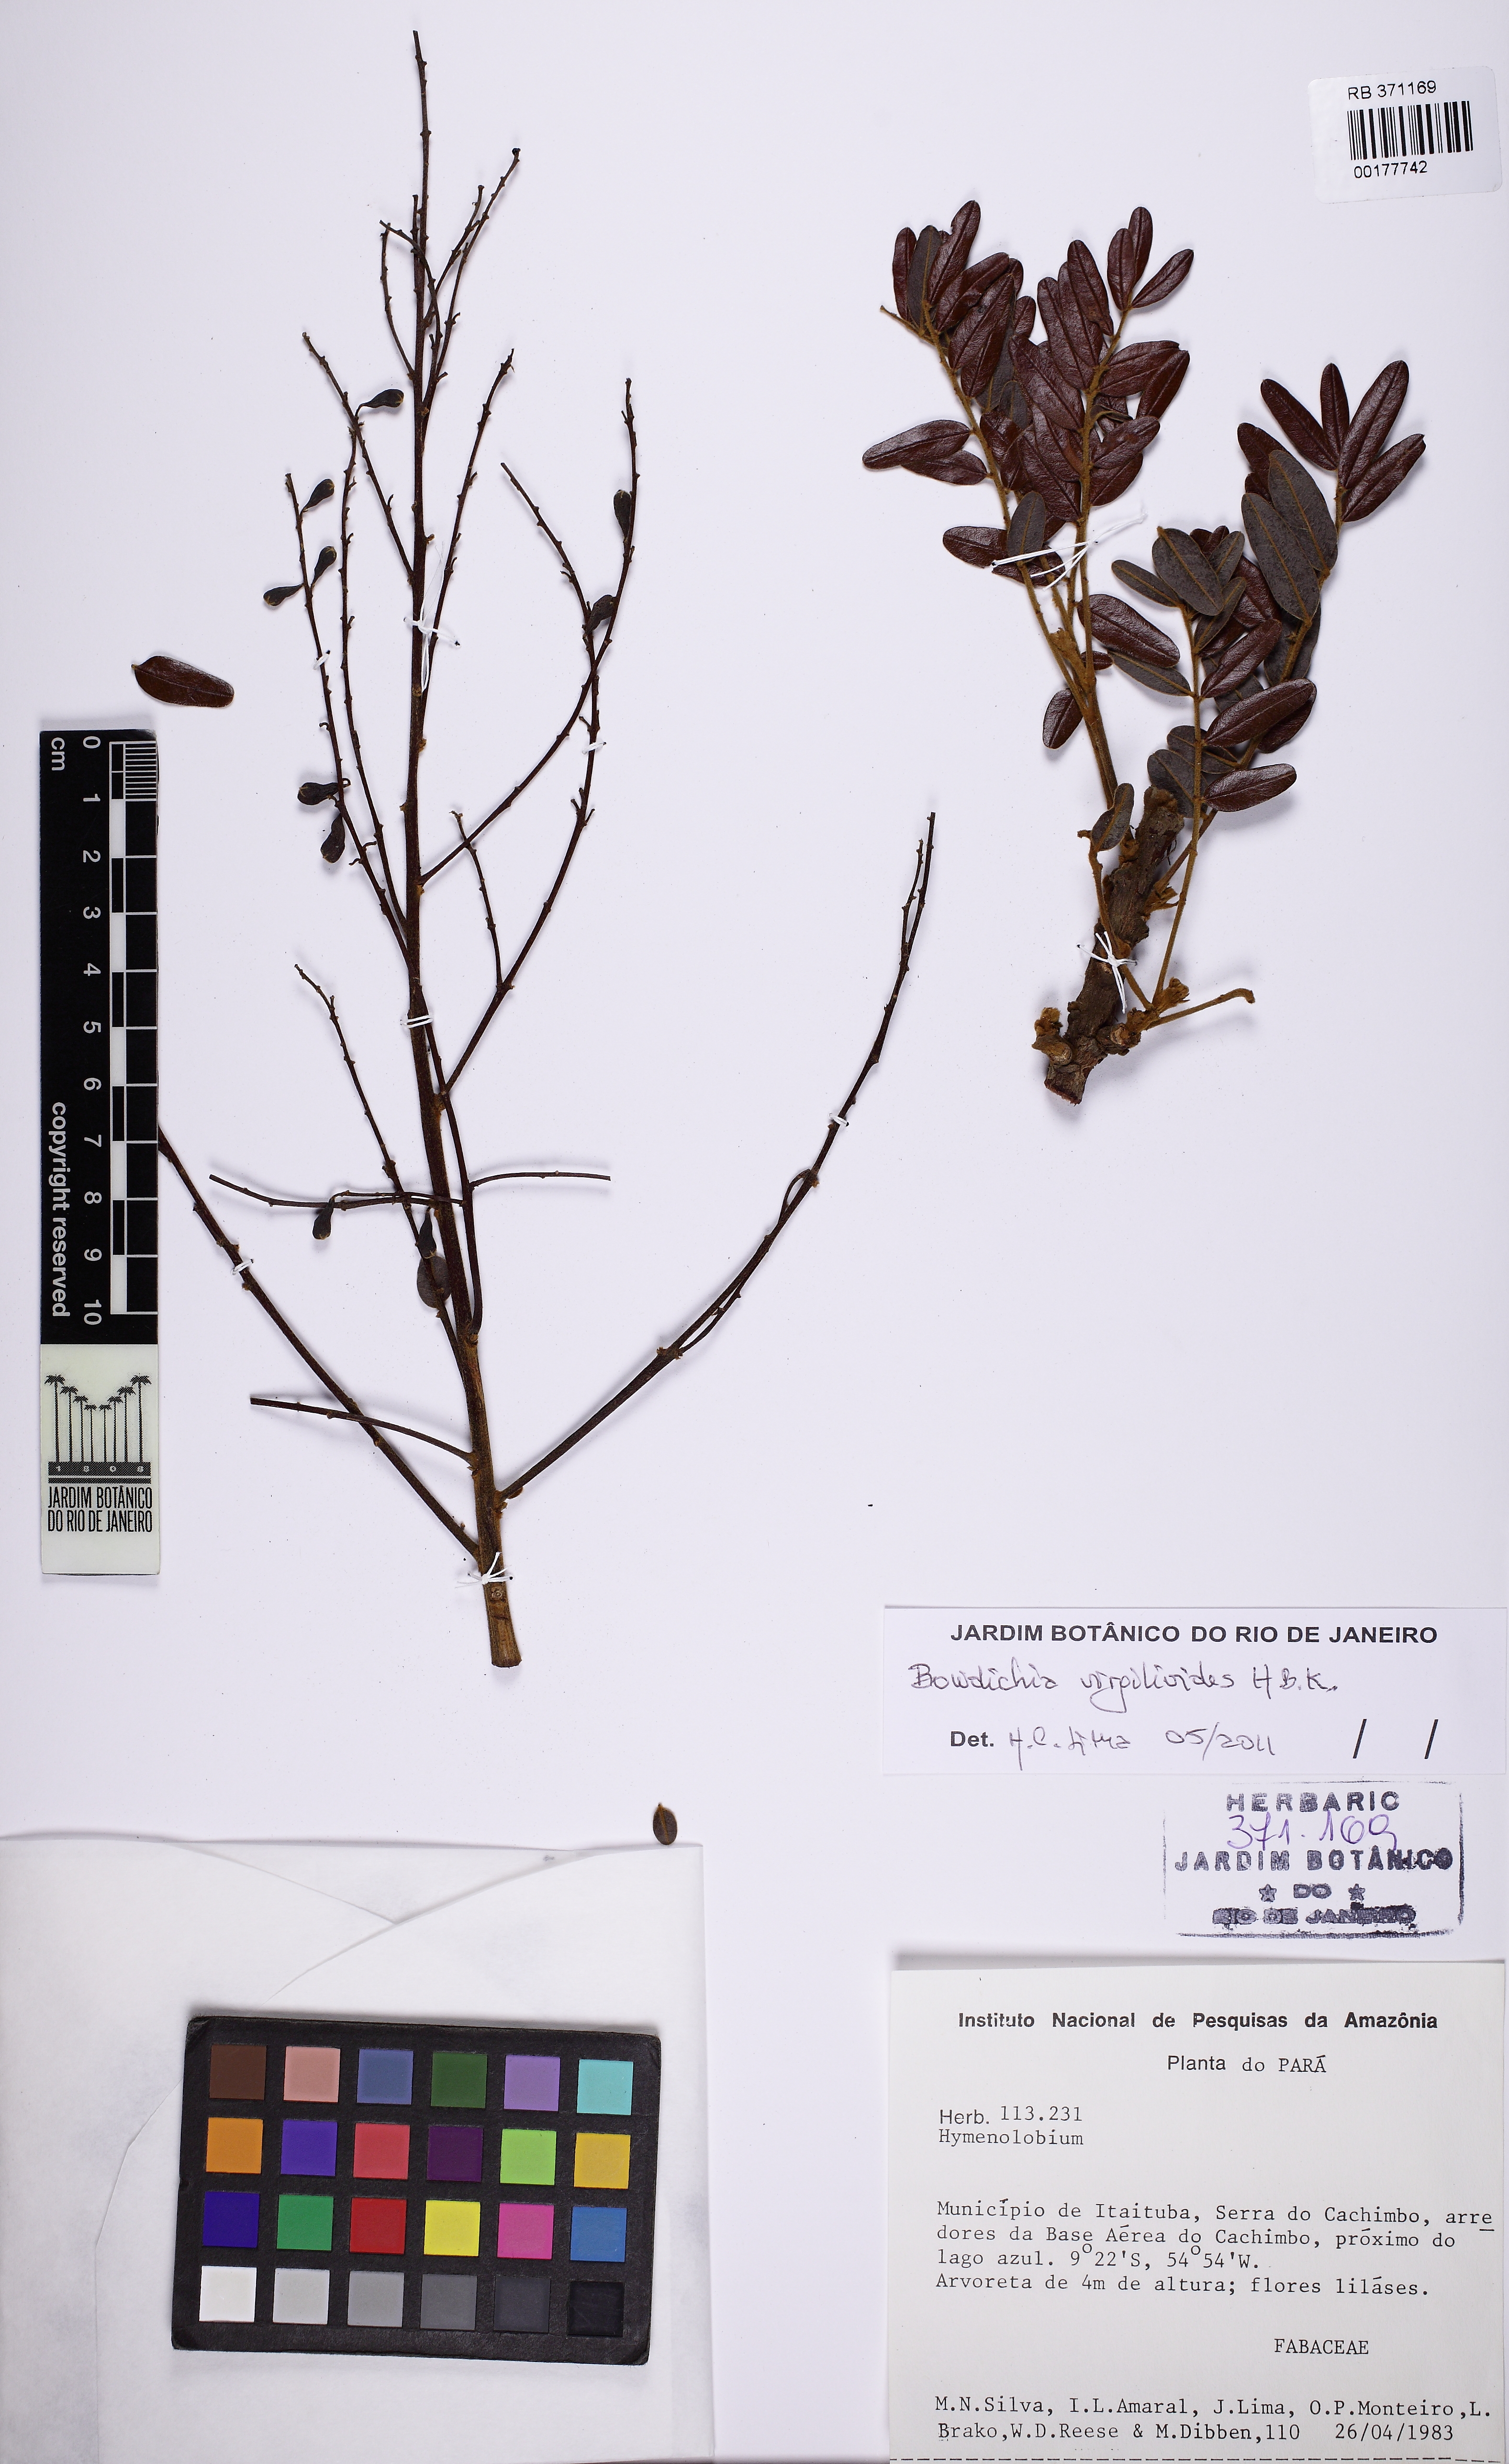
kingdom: Plantae
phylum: Tracheophyta
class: Magnoliopsida
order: Fabales
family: Fabaceae
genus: Bowdichia
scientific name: Bowdichia virgilioides
